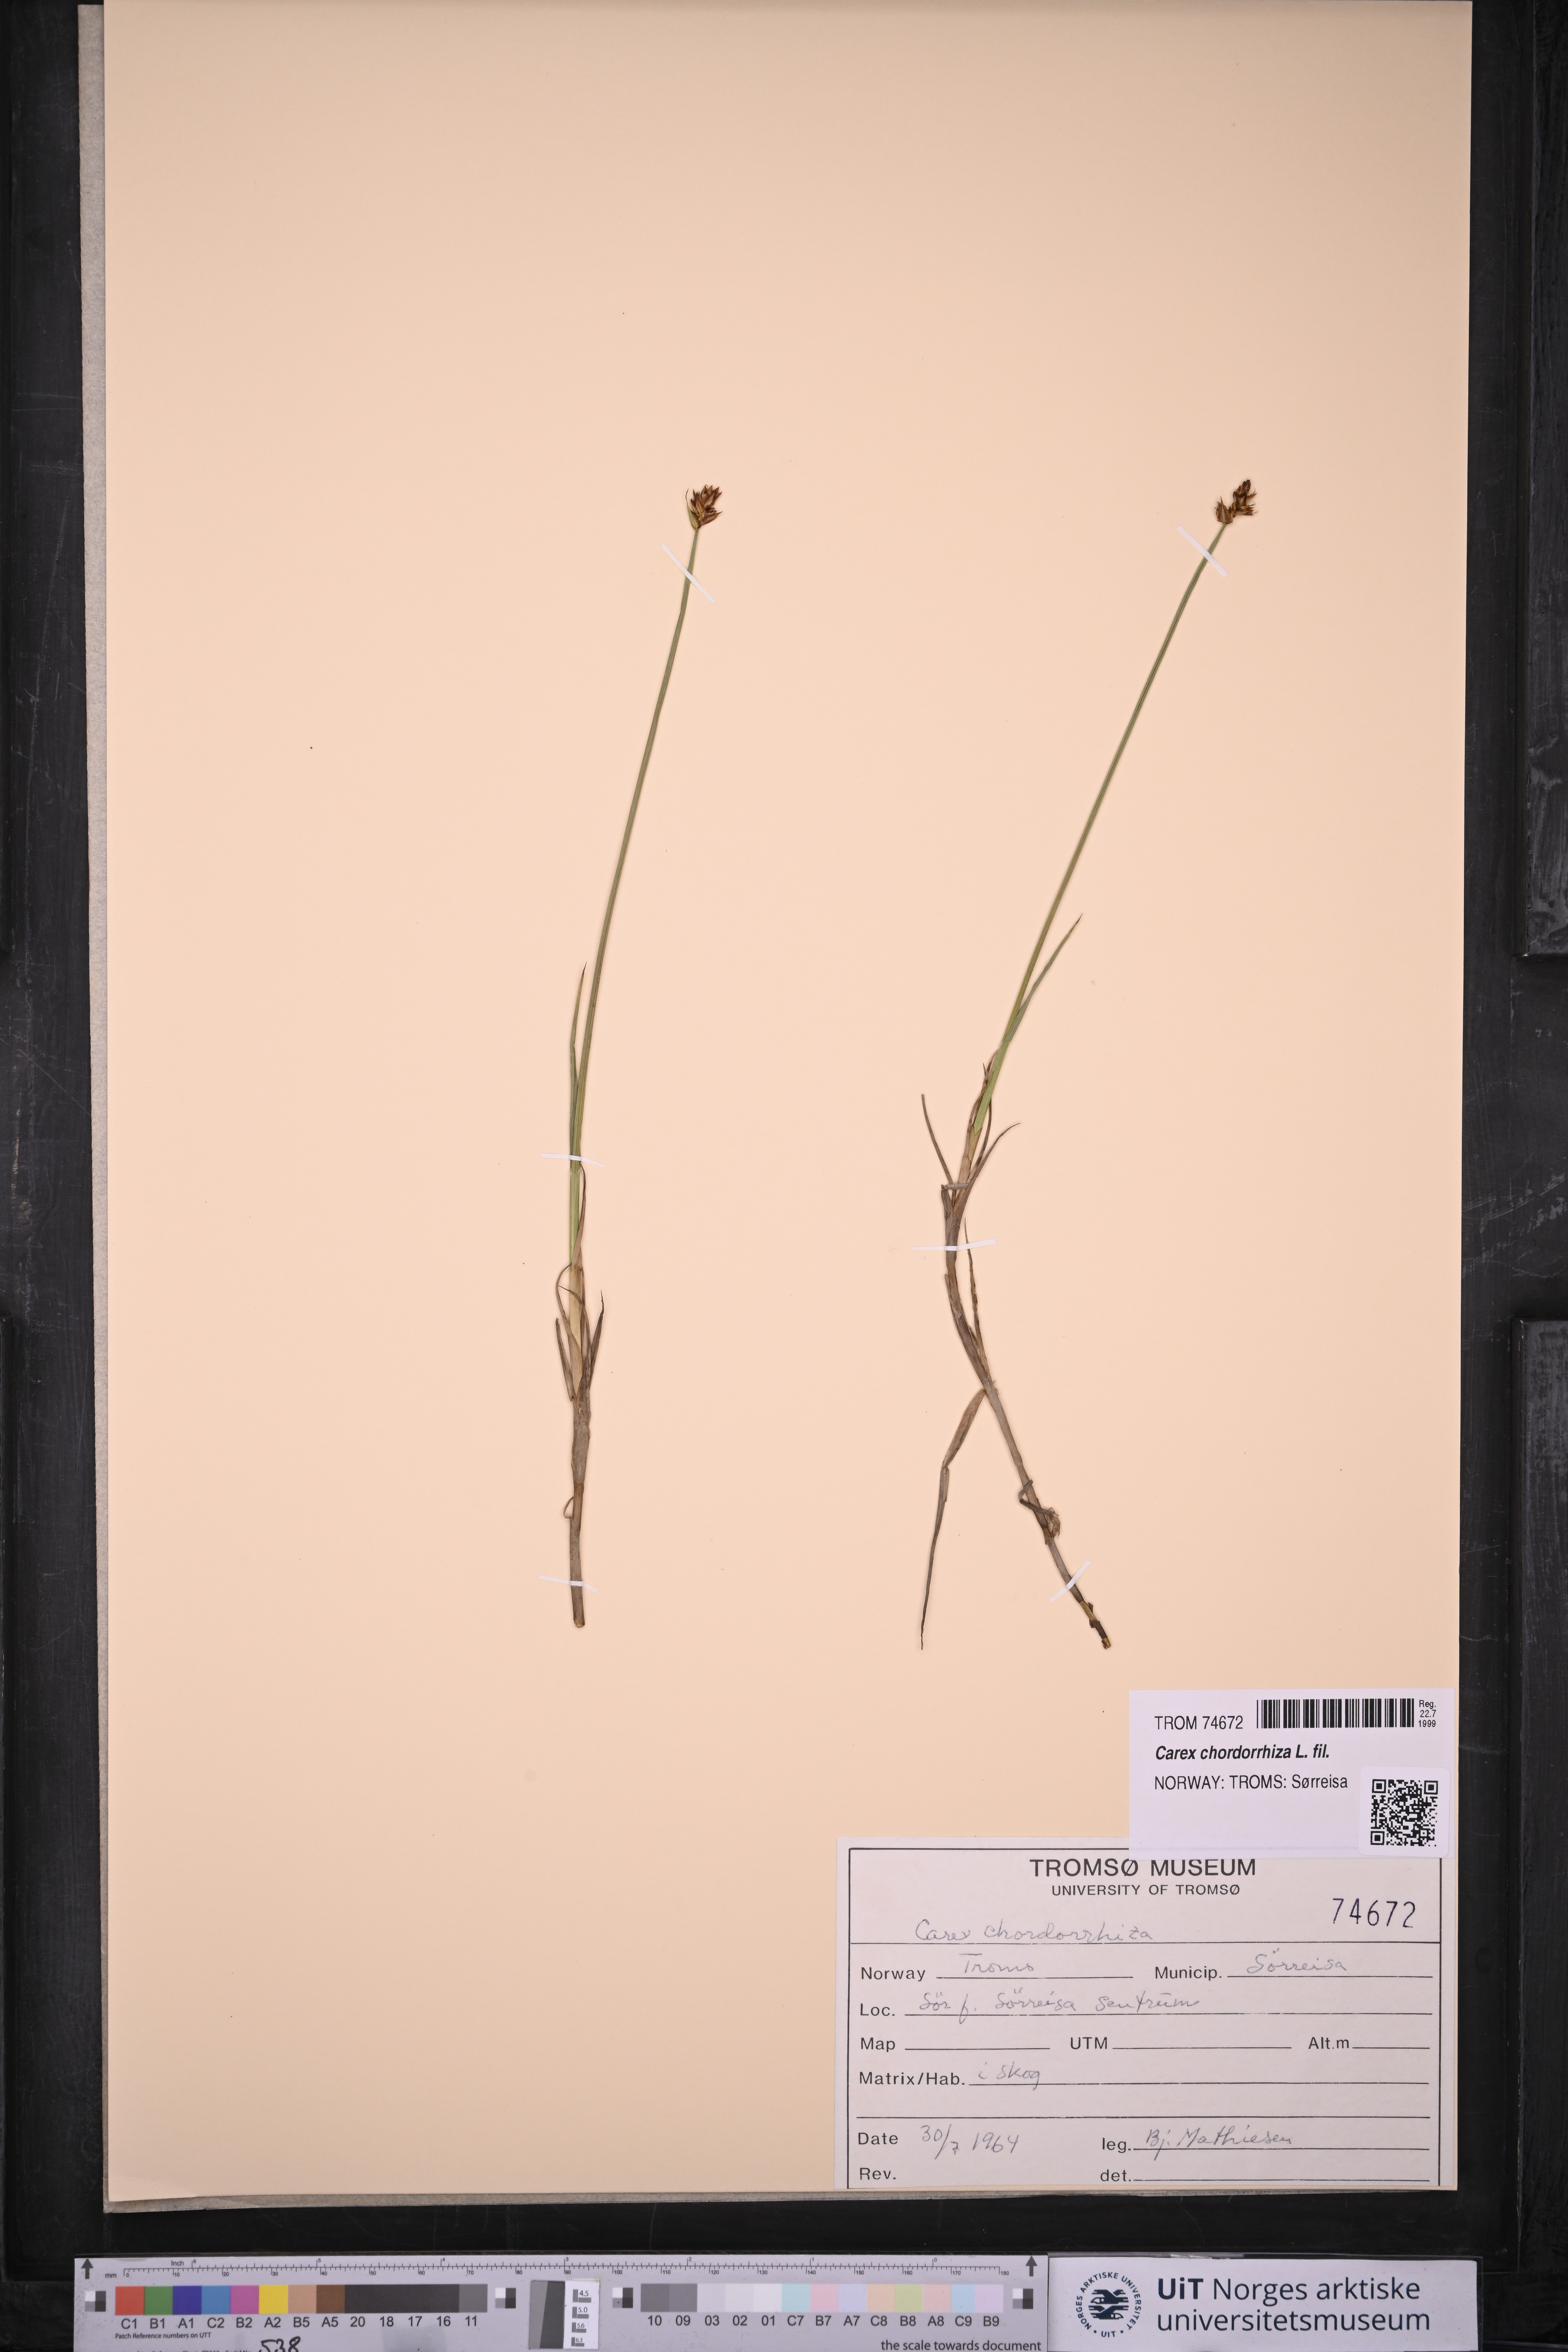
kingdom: Plantae
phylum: Tracheophyta
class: Liliopsida
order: Poales
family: Cyperaceae
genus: Carex
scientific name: Carex chordorrhiza
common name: String sedge
